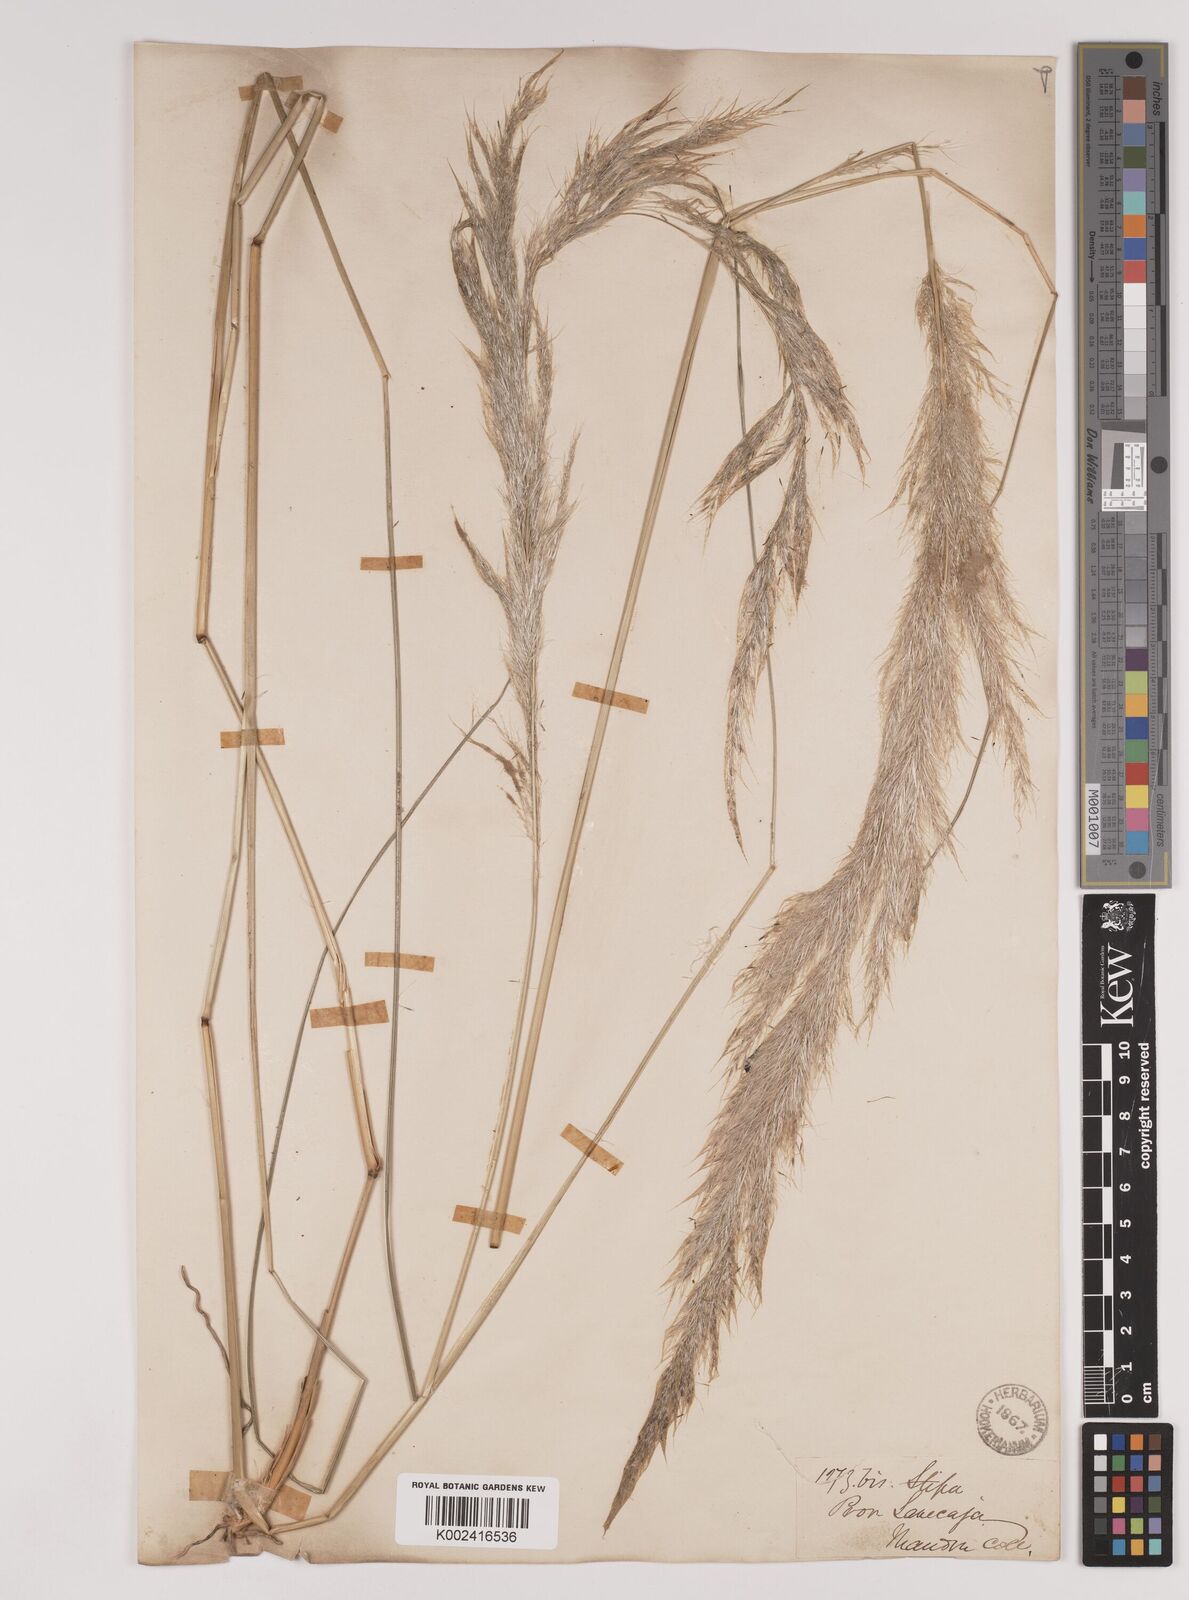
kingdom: Plantae
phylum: Tracheophyta
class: Liliopsida
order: Poales
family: Poaceae
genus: Stipa
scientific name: Stipa
